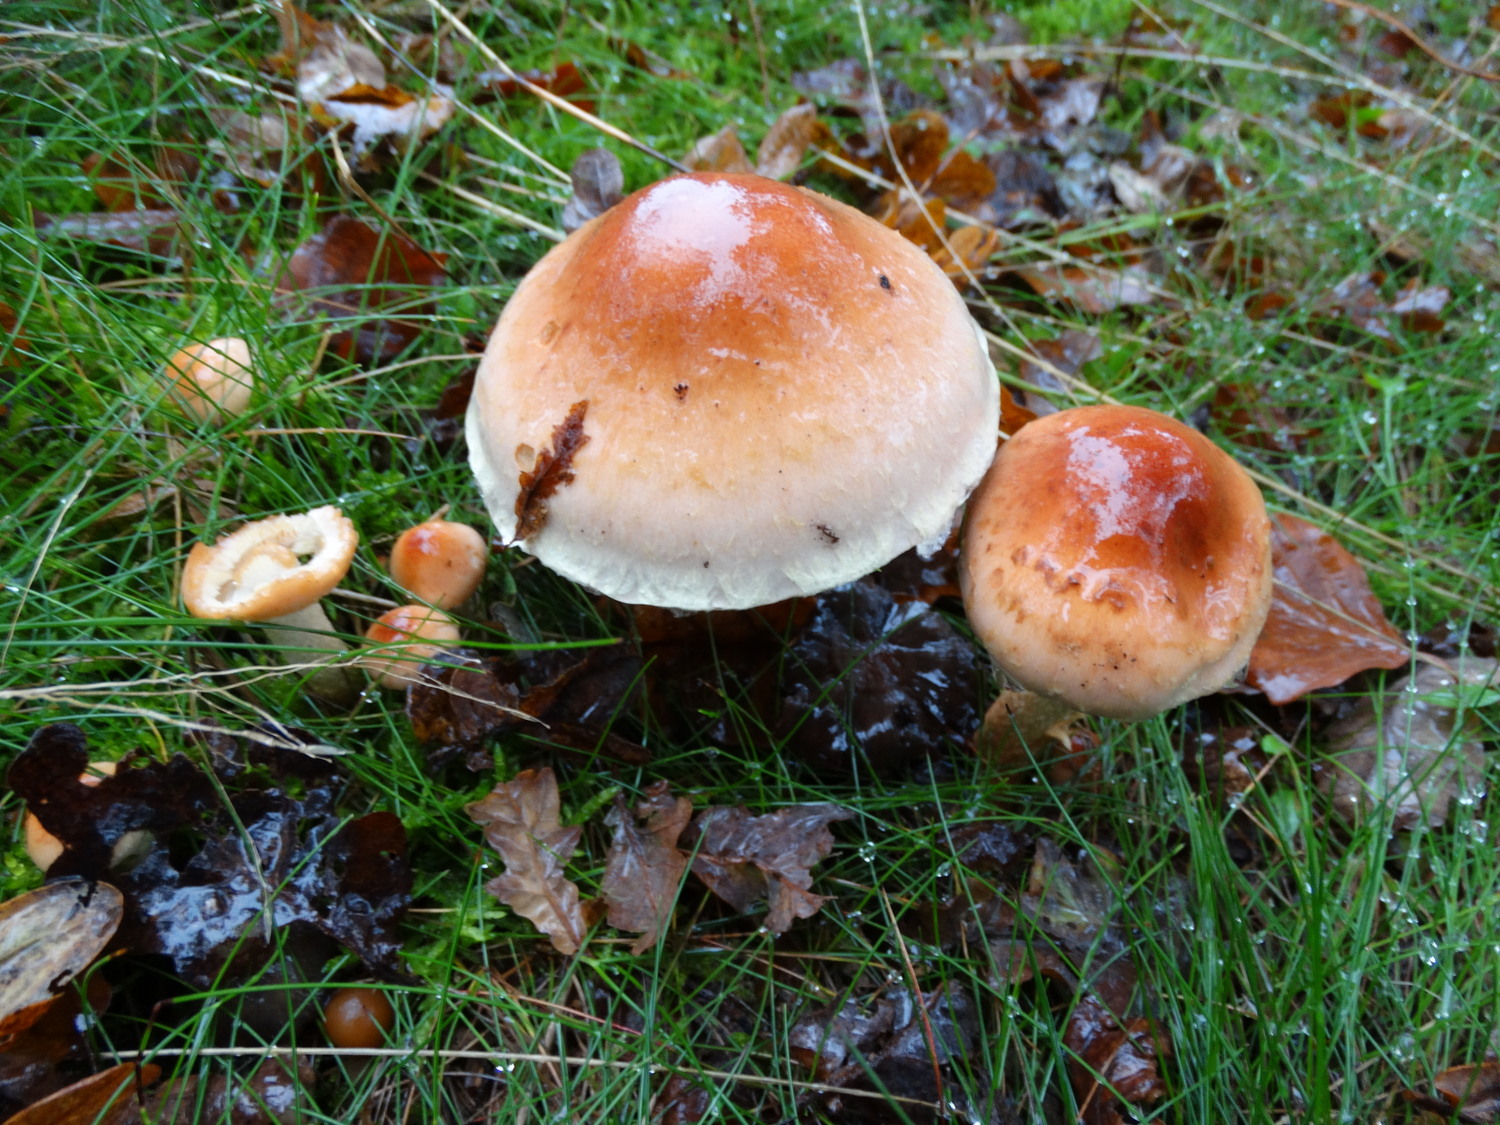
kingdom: Fungi
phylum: Basidiomycota
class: Agaricomycetes
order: Agaricales
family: Strophariaceae
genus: Hypholoma
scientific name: Hypholoma lateritium
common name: teglrød svovlhat
